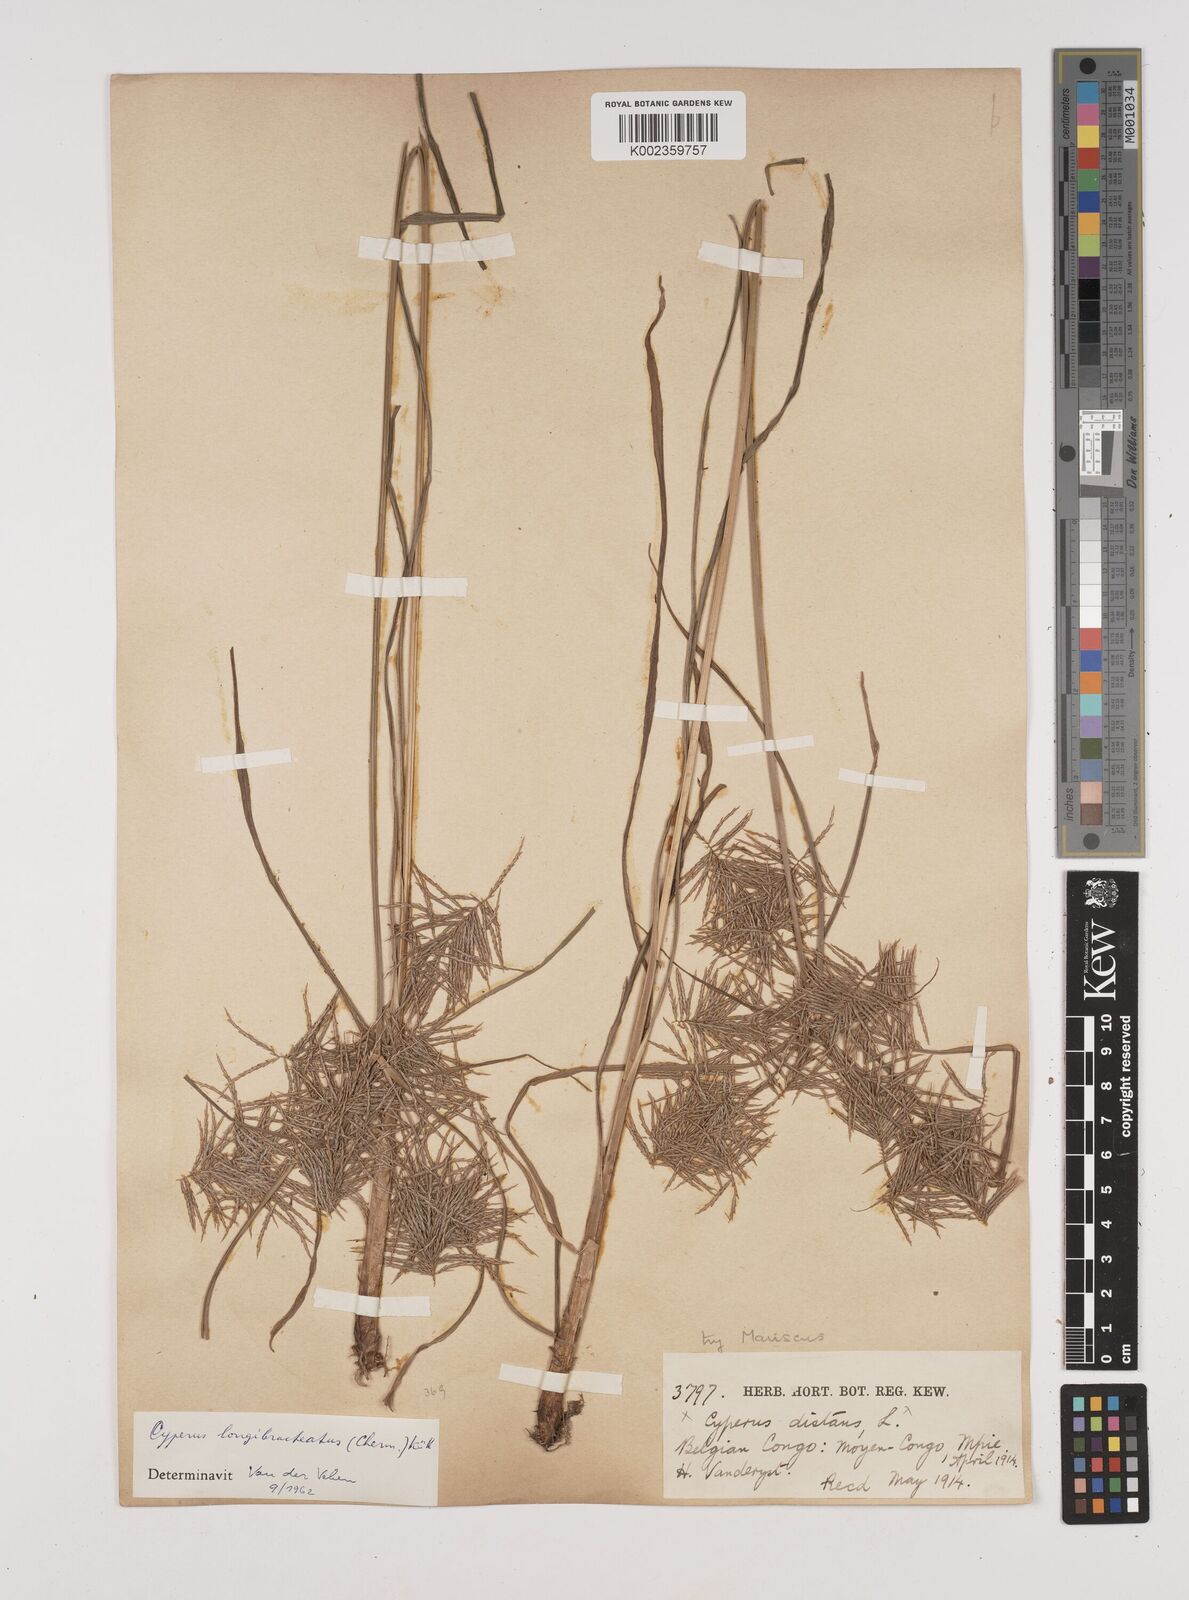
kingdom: Plantae
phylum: Tracheophyta
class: Liliopsida
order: Poales
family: Cyperaceae
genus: Cyperus
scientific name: Cyperus distans
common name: Slender cyperus
